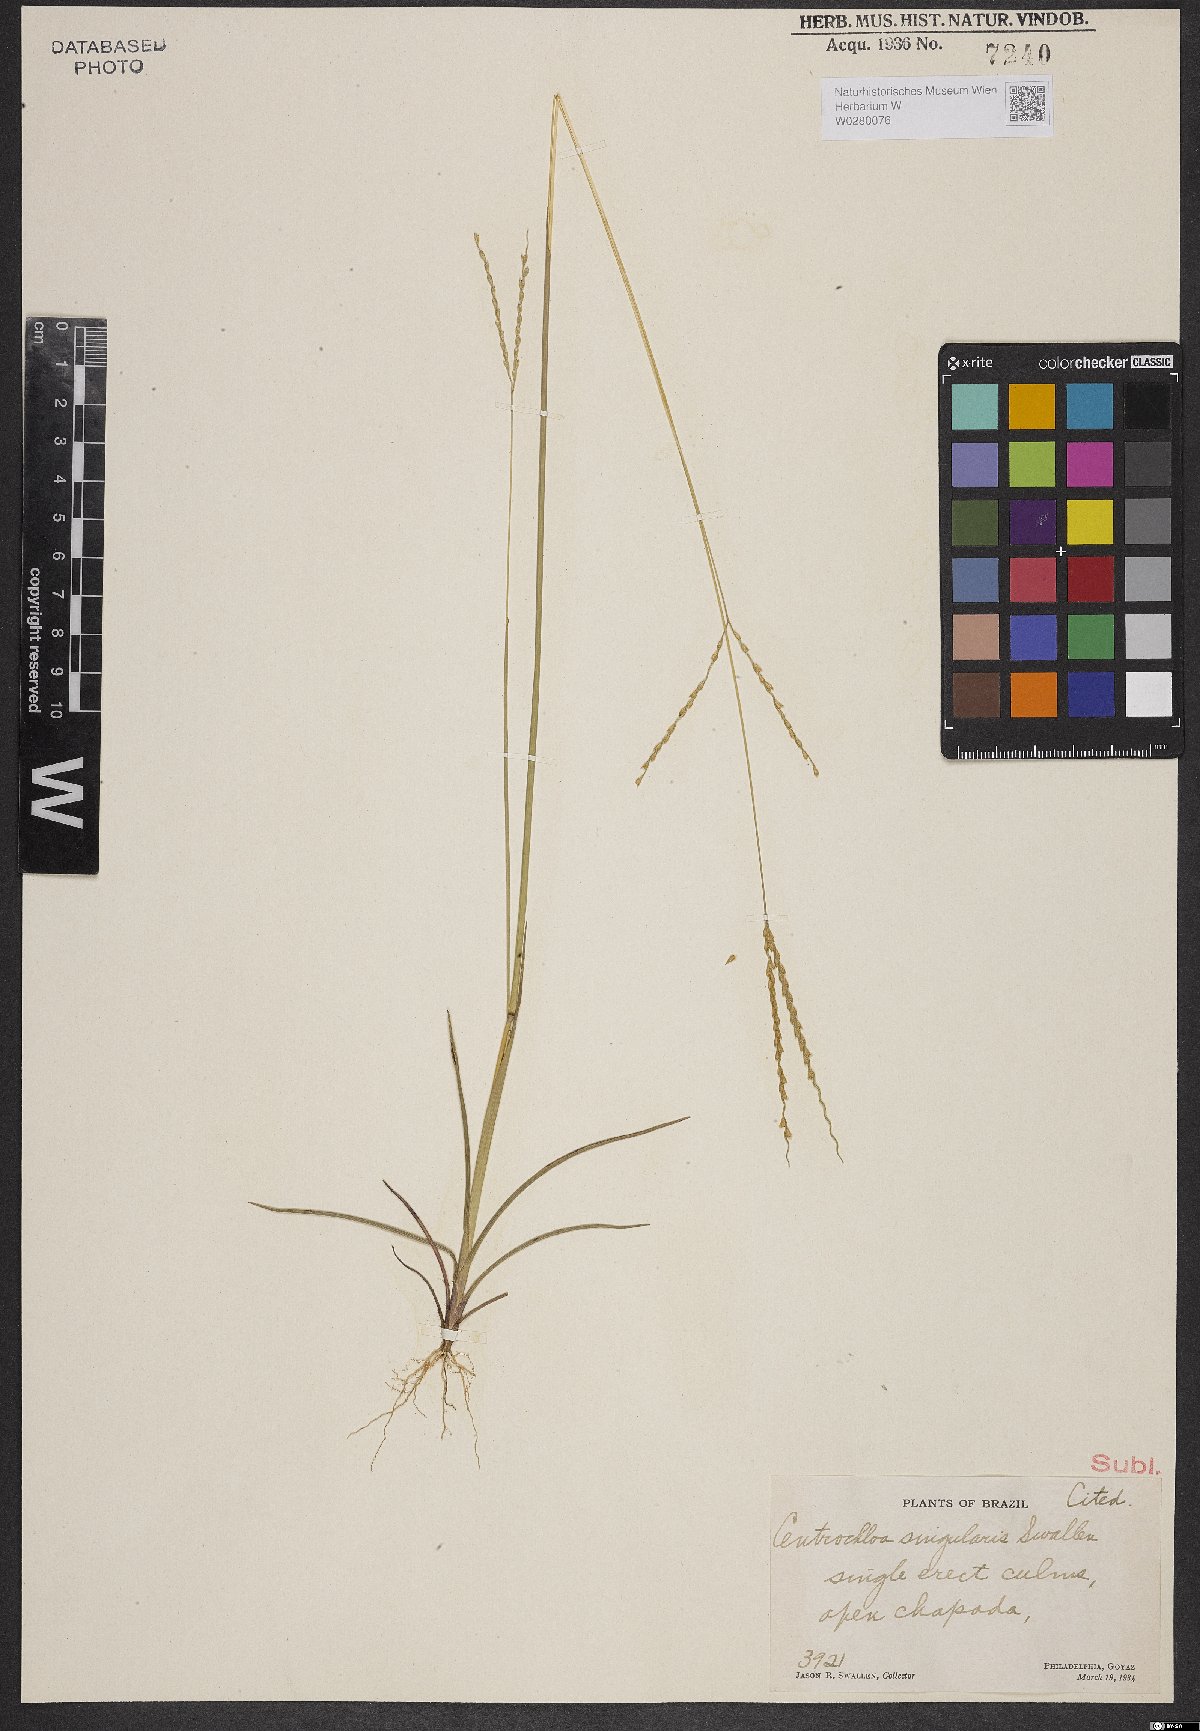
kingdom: Plantae
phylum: Tracheophyta
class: Liliopsida
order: Poales
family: Poaceae
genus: Axonopus
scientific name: Axonopus singularis
